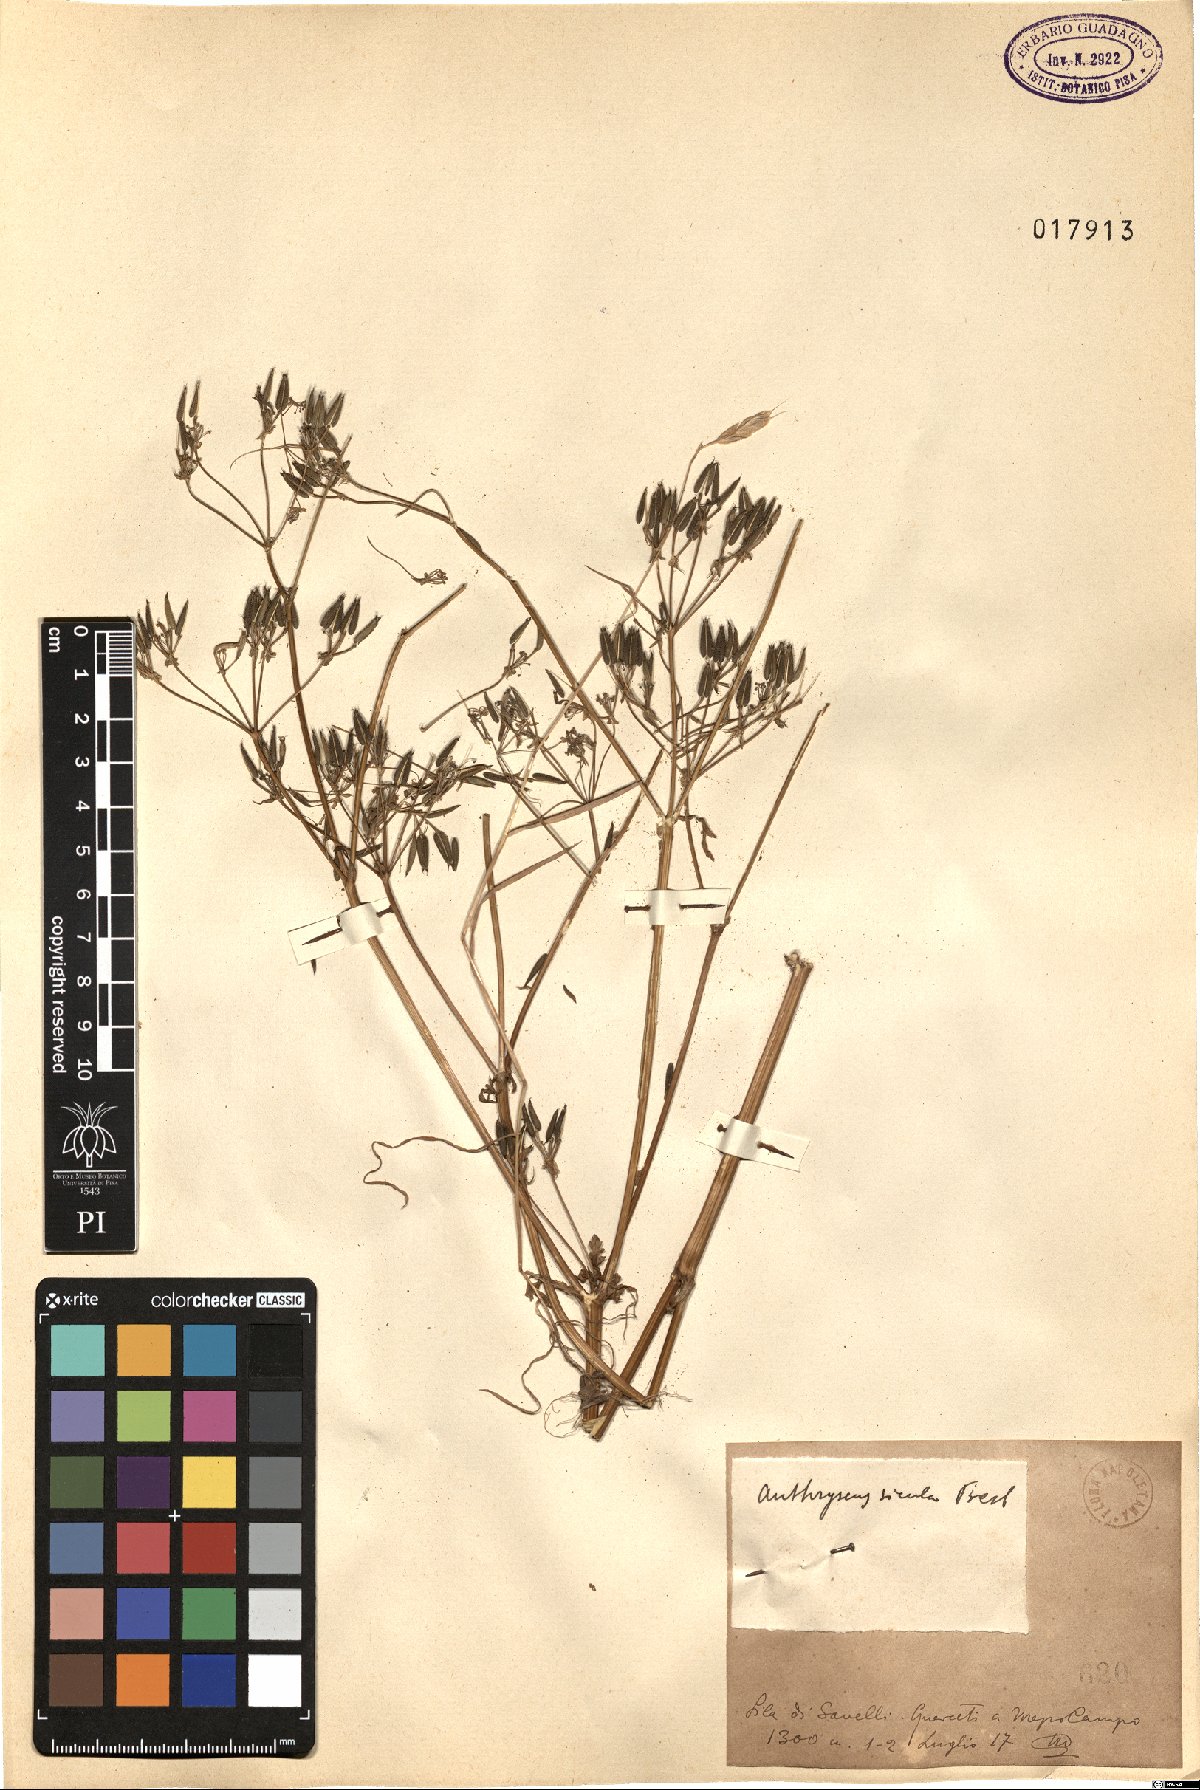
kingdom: Plantae
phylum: Tracheophyta
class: Magnoliopsida
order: Apiales
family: Apiaceae
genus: Anthriscus
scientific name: Anthriscus sicula
